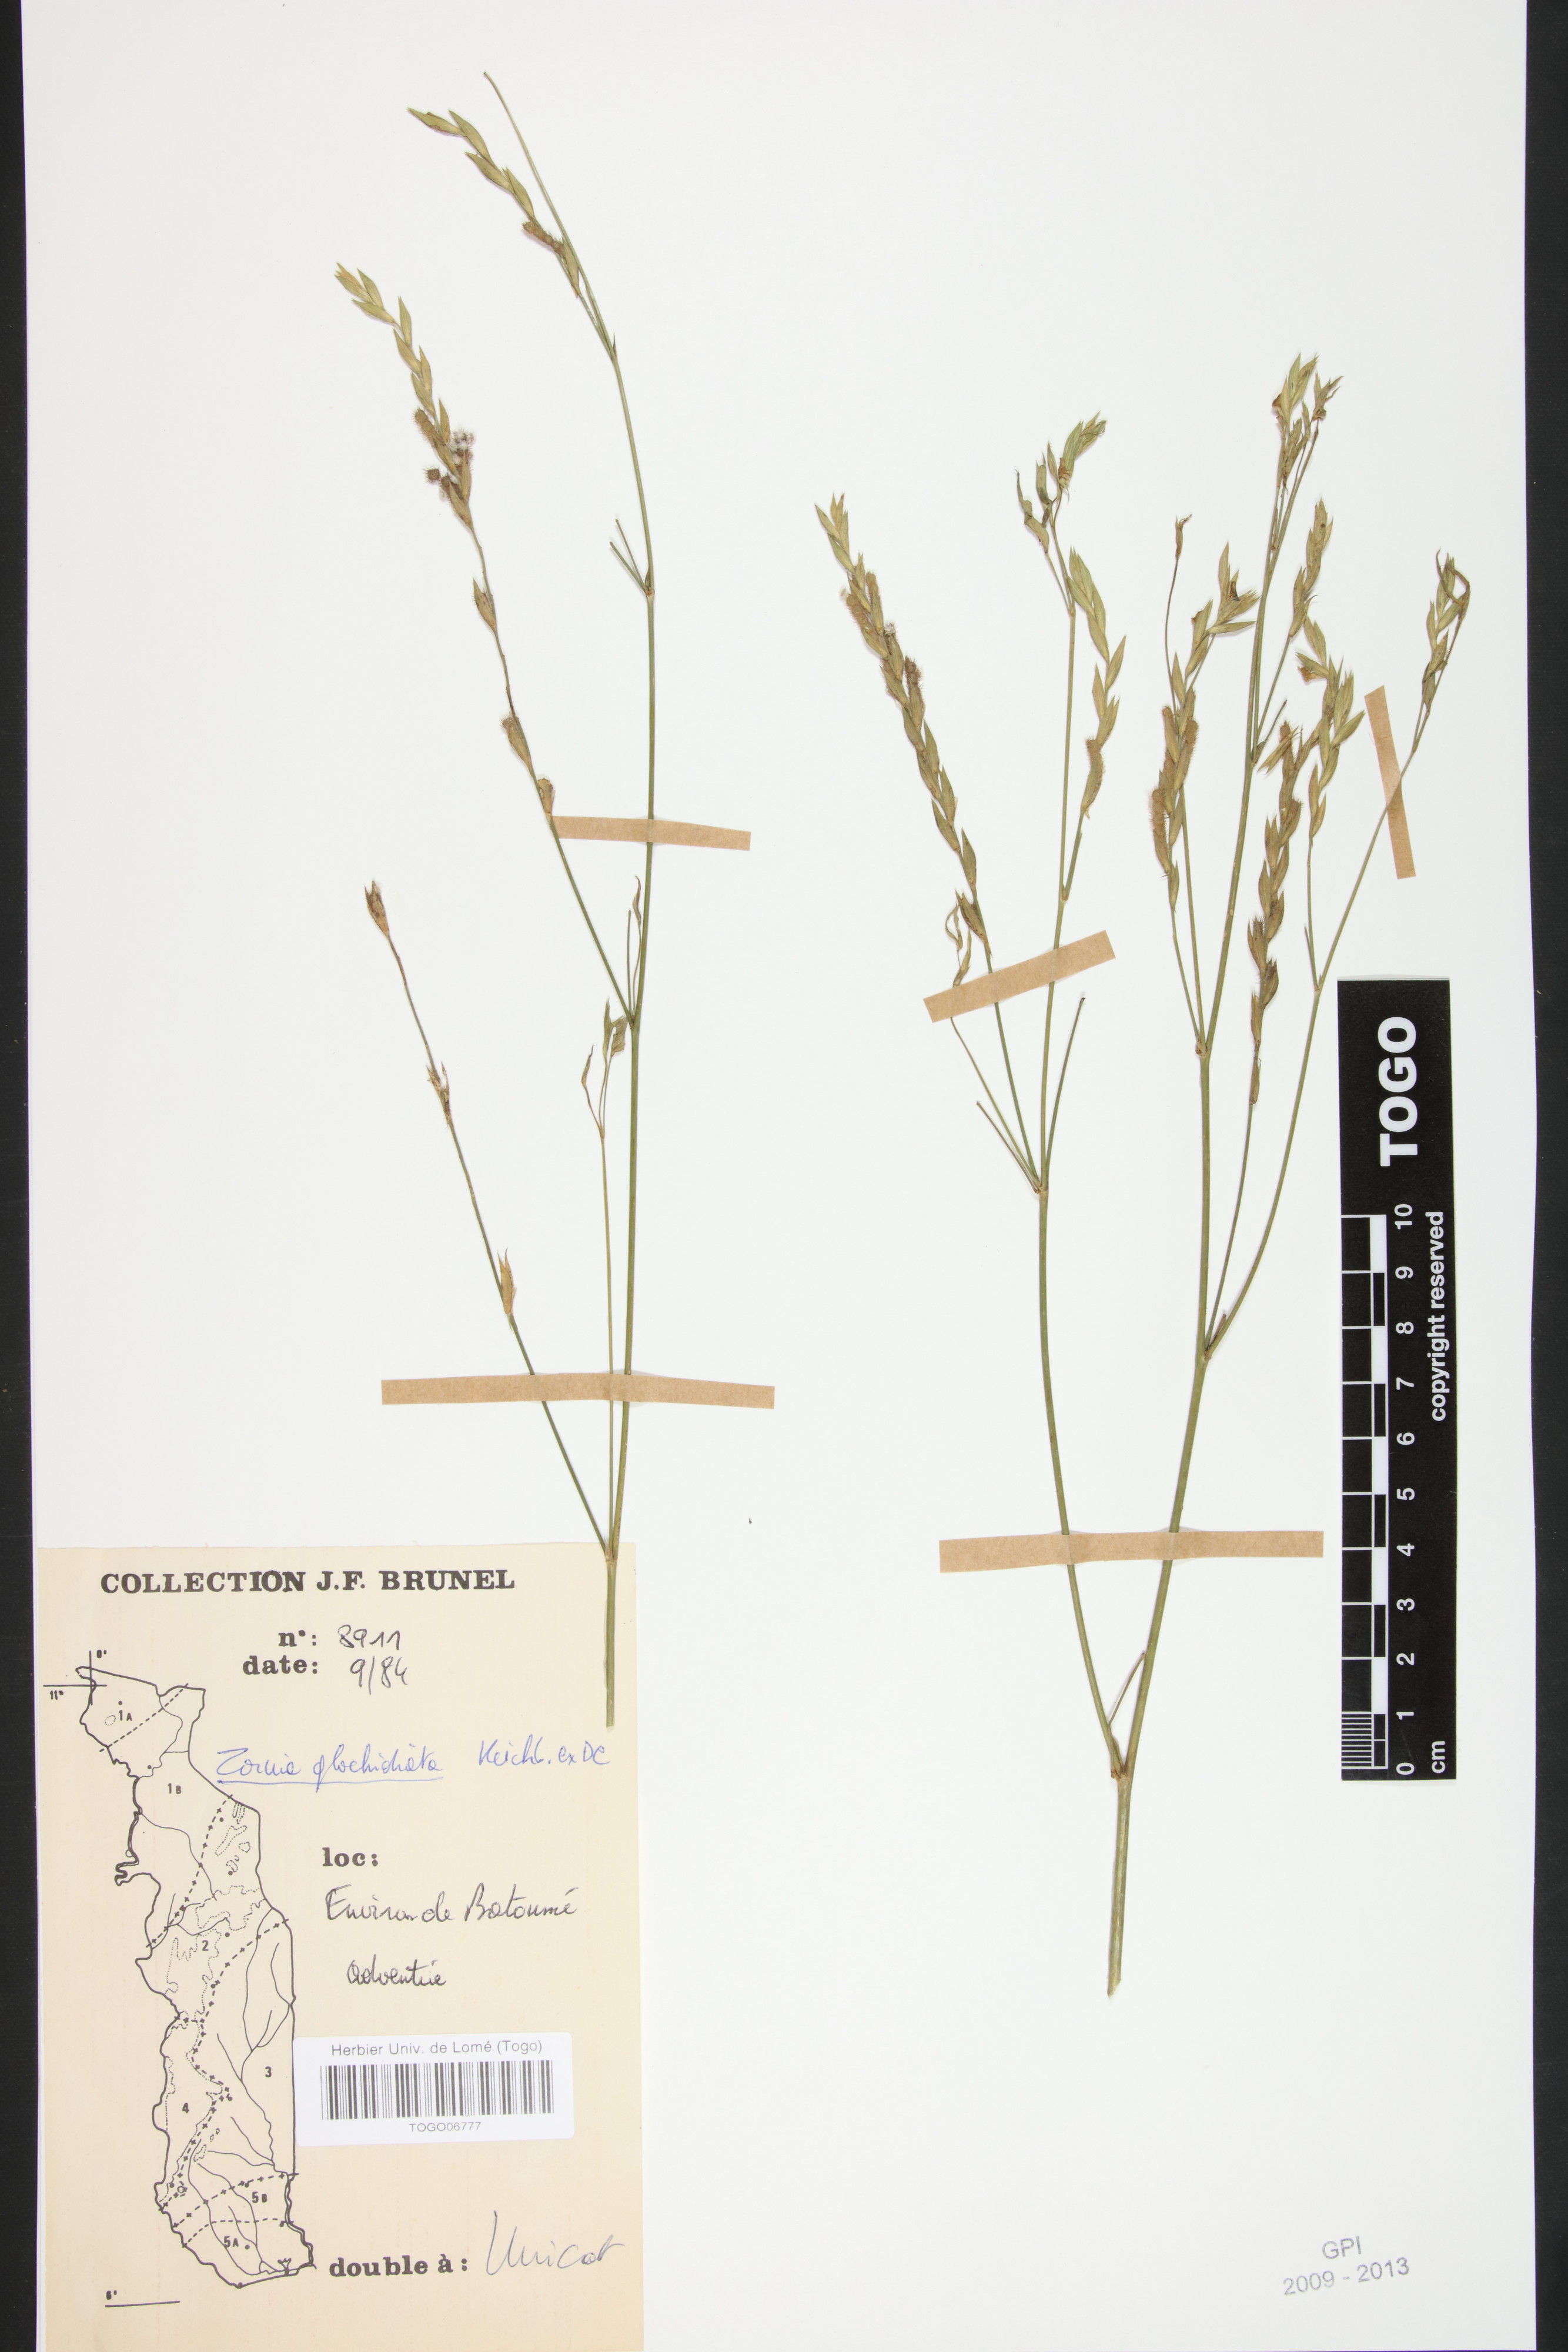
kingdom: Plantae
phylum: Tracheophyta
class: Magnoliopsida
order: Fabales
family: Fabaceae
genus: Zornia
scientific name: Zornia glochidiata
